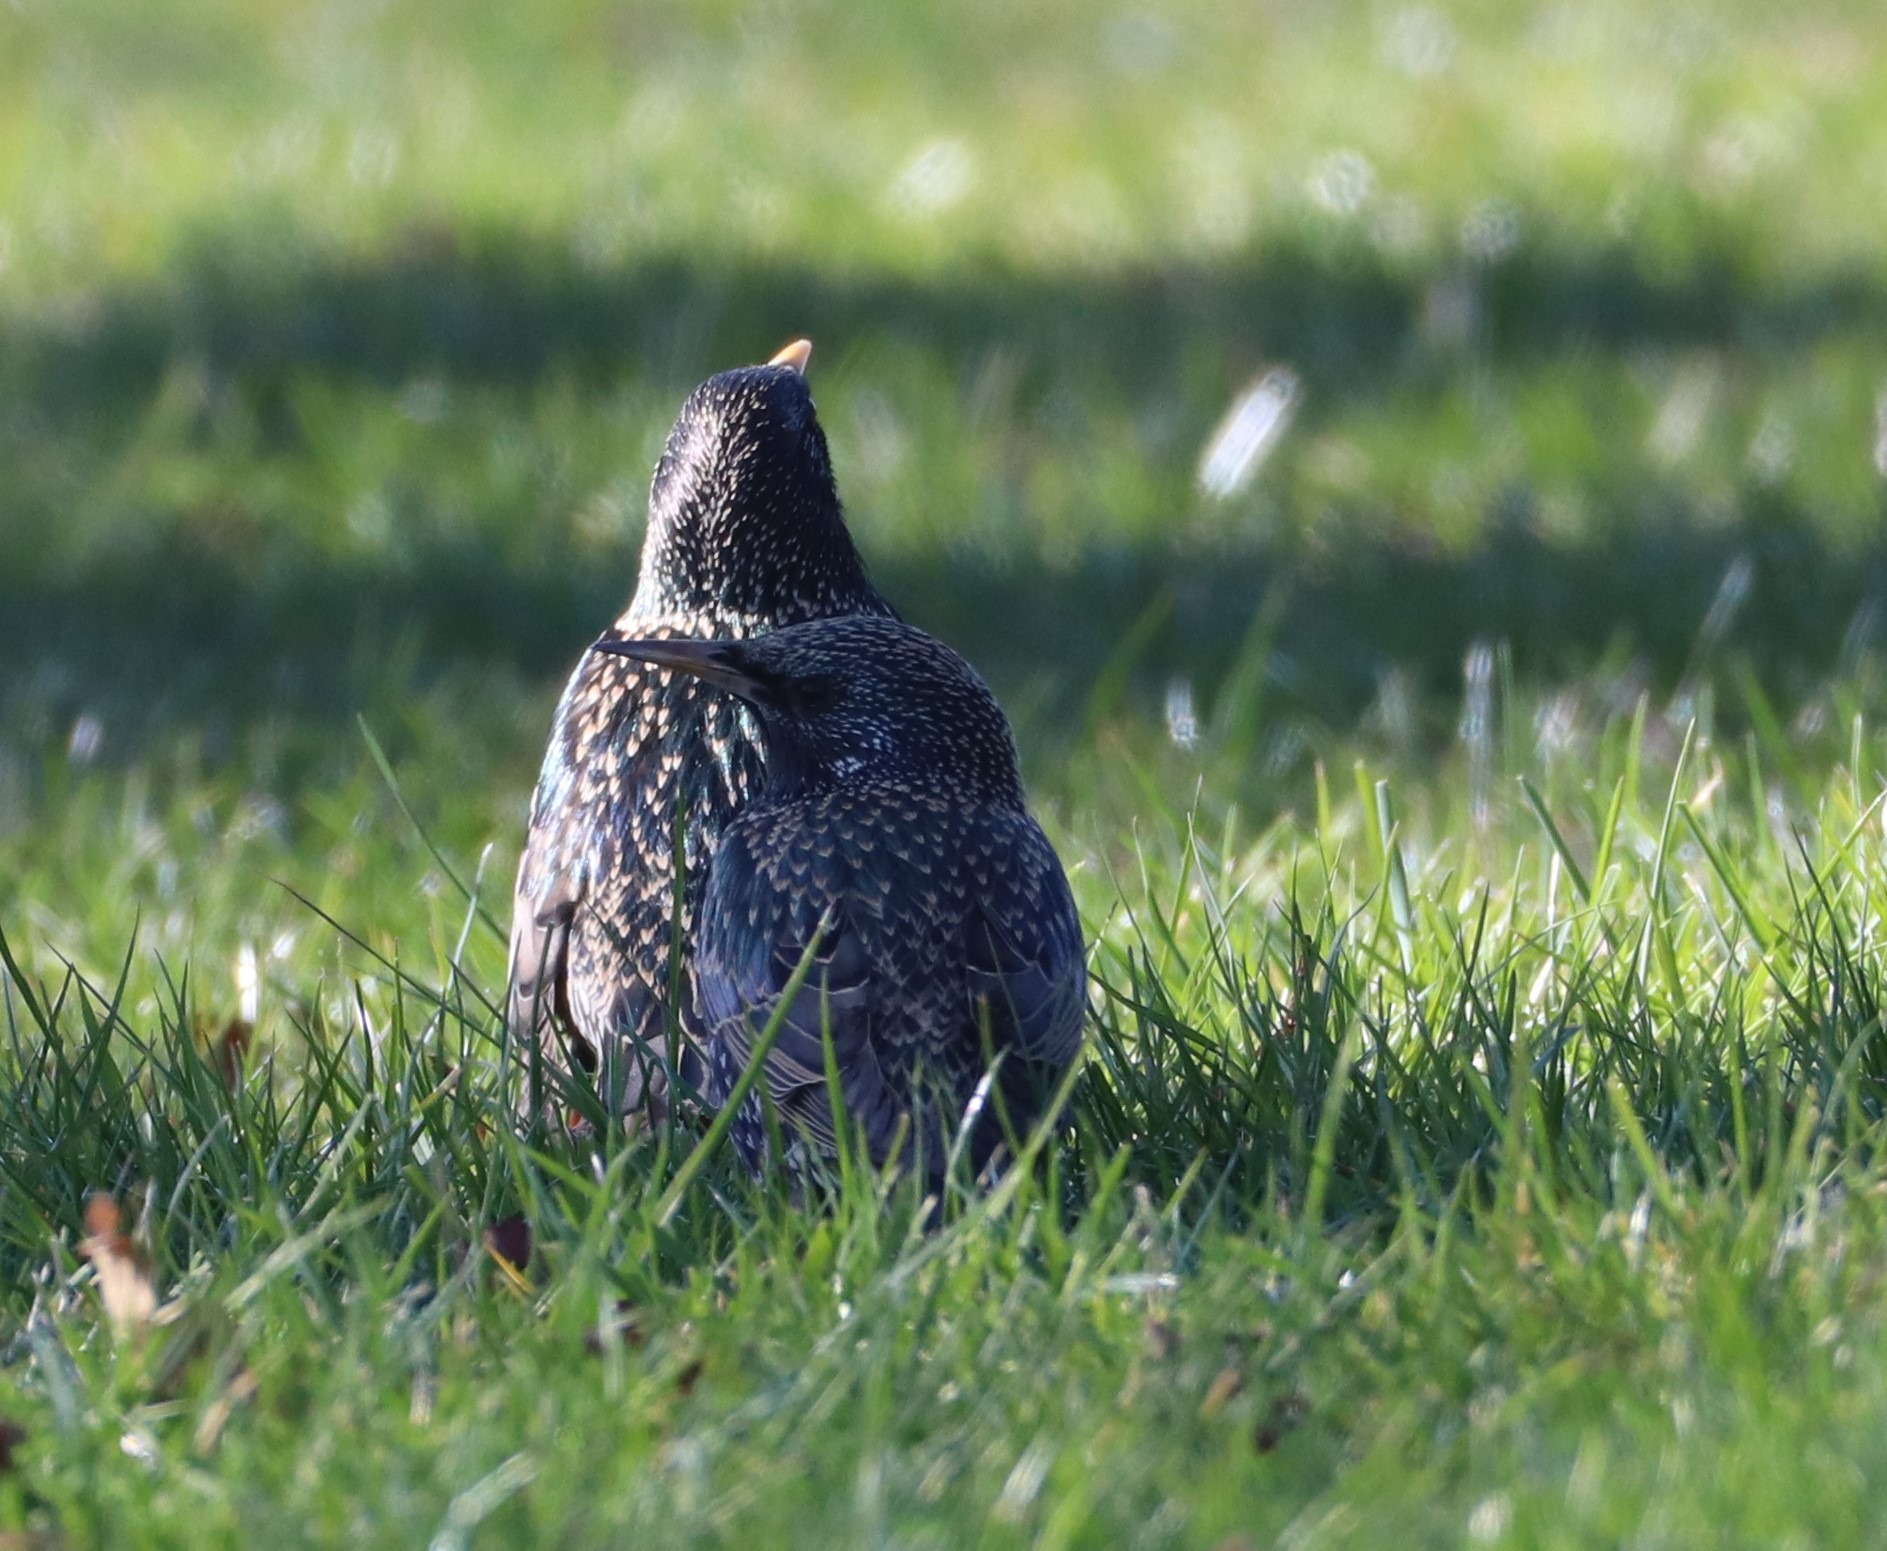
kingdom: Animalia
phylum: Chordata
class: Aves
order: Passeriformes
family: Sturnidae
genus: Sturnus
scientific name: Sturnus vulgaris
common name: Stær
